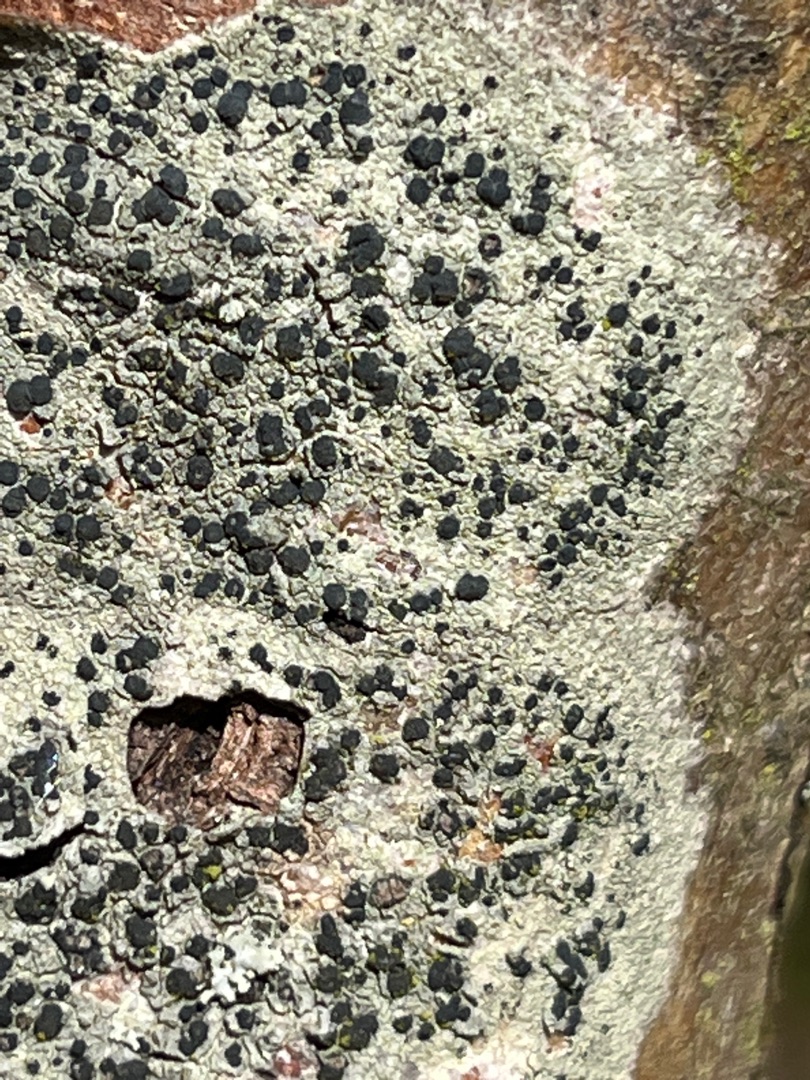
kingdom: Fungi
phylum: Ascomycota
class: Lecanoromycetes
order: Lecanorales
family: Lecanoraceae
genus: Lecidella
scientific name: Lecidella elaeochroma
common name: Grågrøn skivelav
